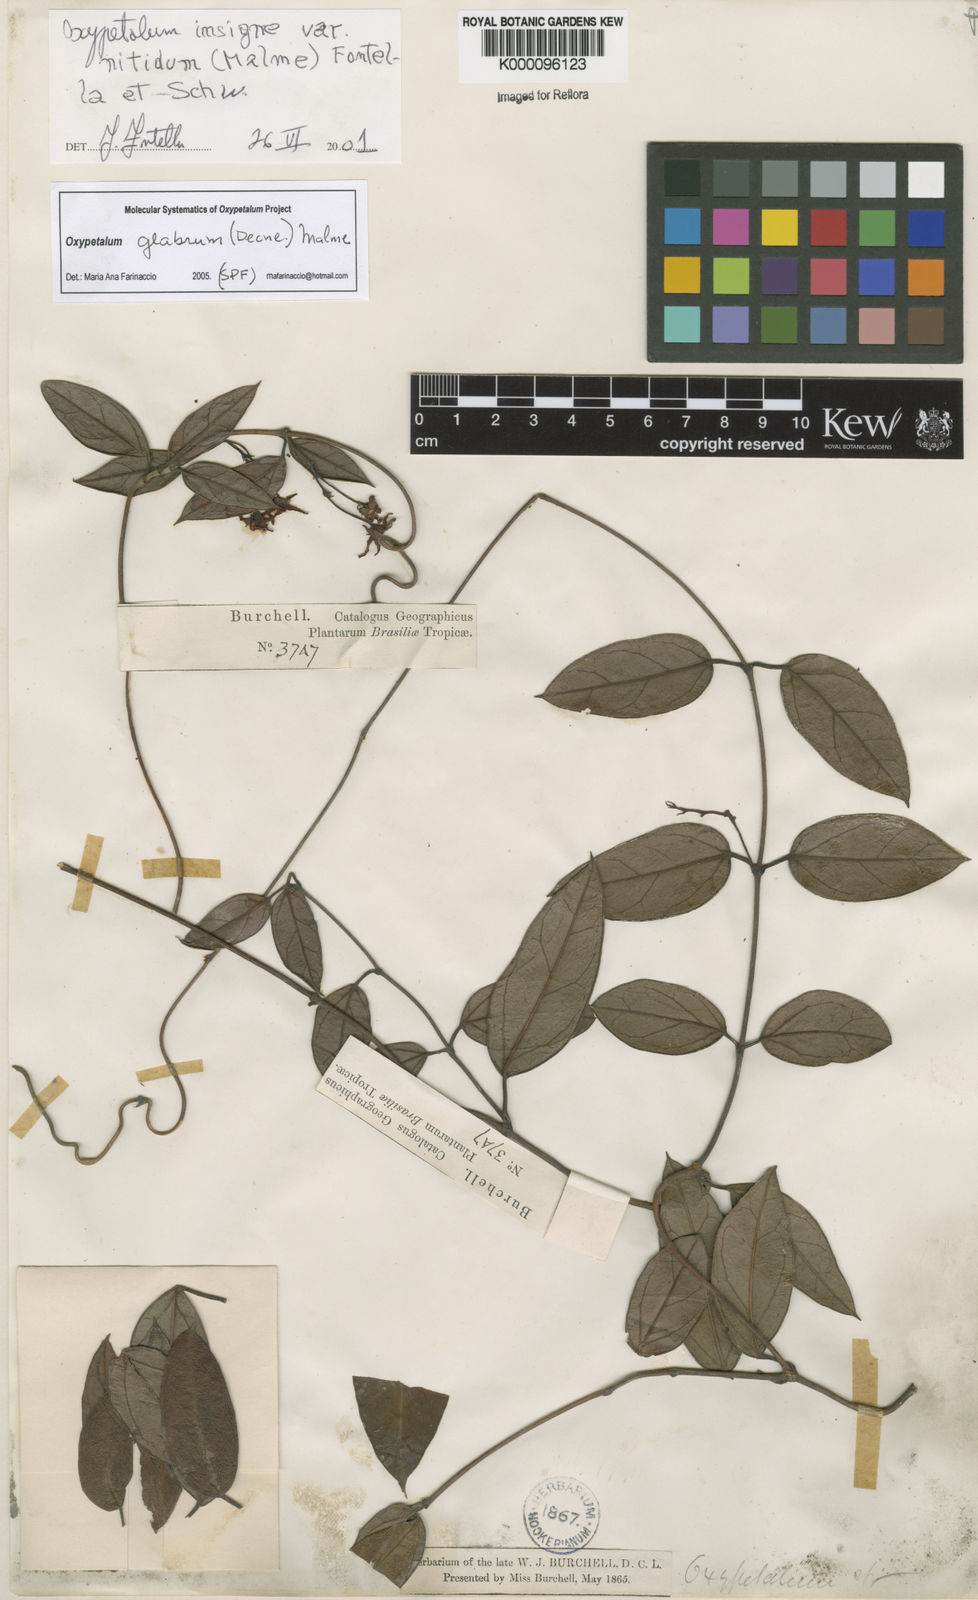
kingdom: Plantae
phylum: Tracheophyta
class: Magnoliopsida
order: Gentianales
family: Apocynaceae
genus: Oxypetalum
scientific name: Oxypetalum nitidum
